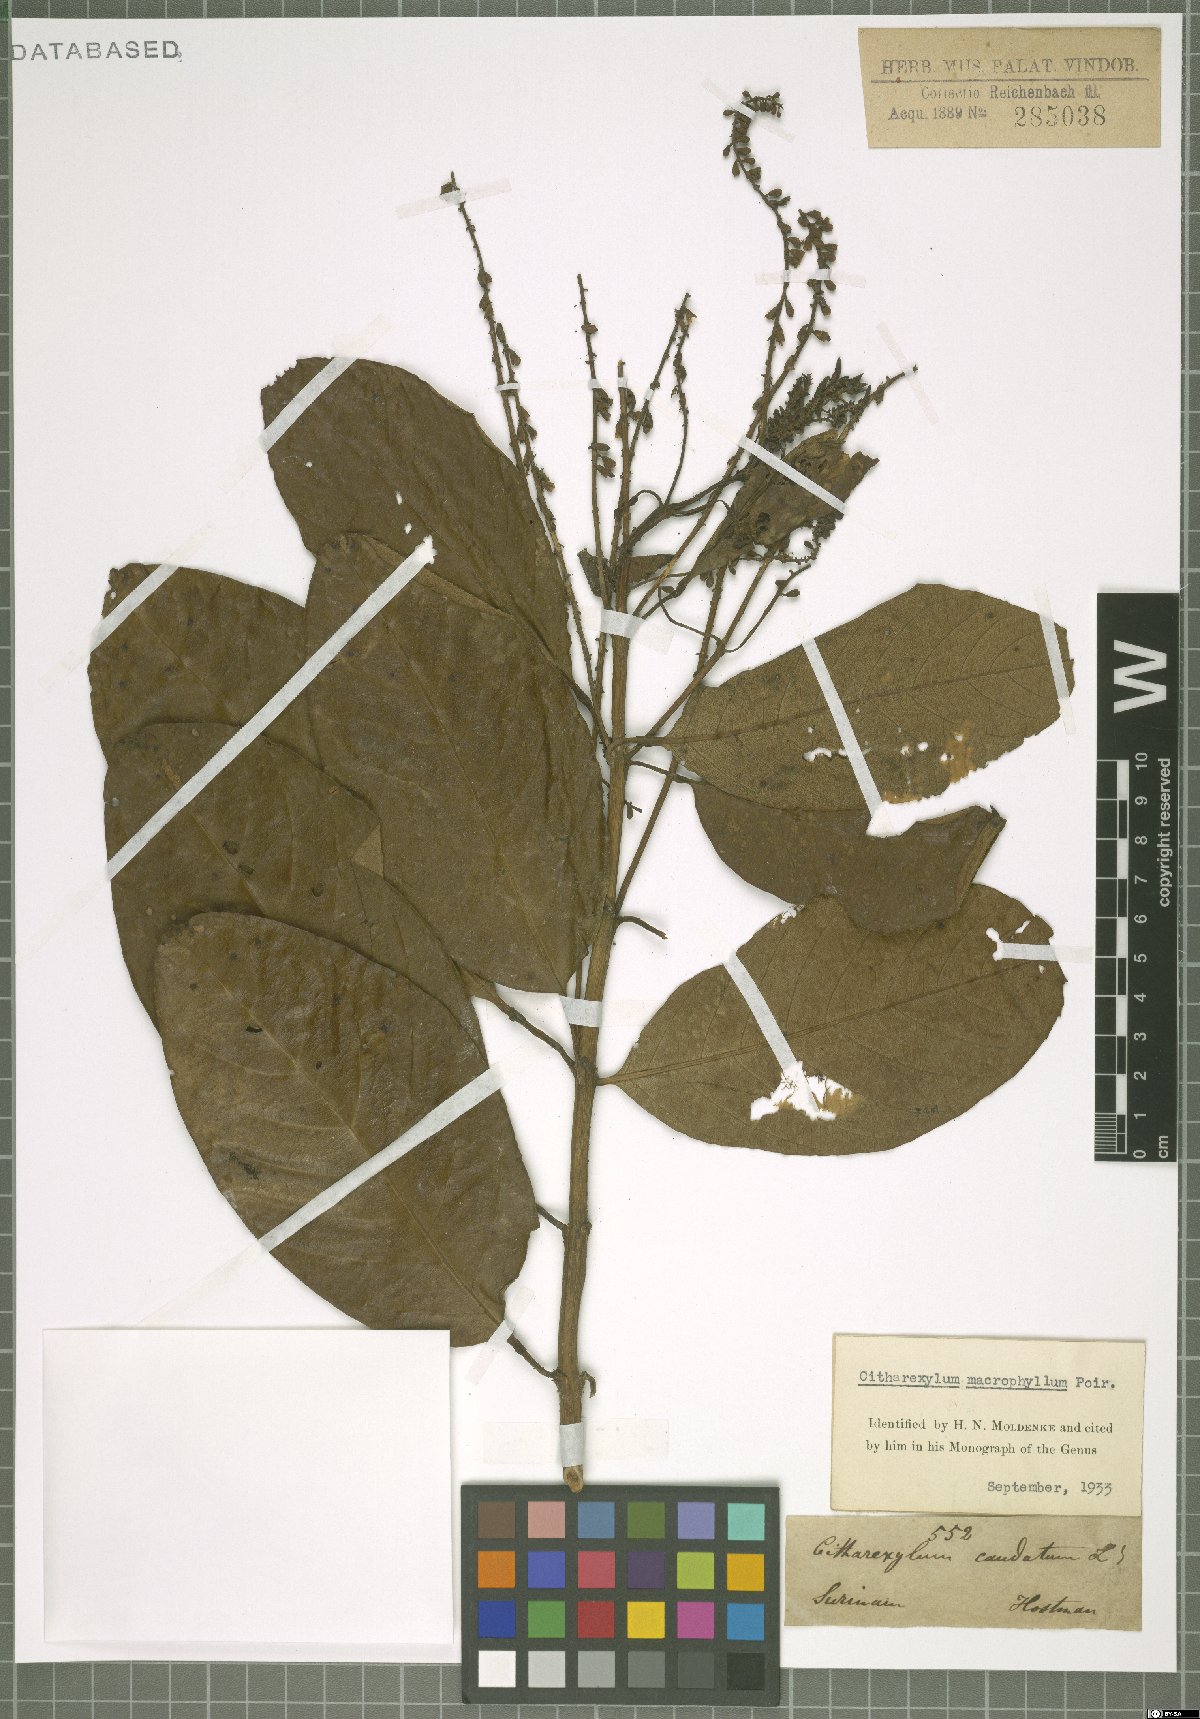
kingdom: Plantae
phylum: Tracheophyta
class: Magnoliopsida
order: Lamiales
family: Verbenaceae
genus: Citharexylum
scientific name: Citharexylum spinosum
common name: Fiddlewood
